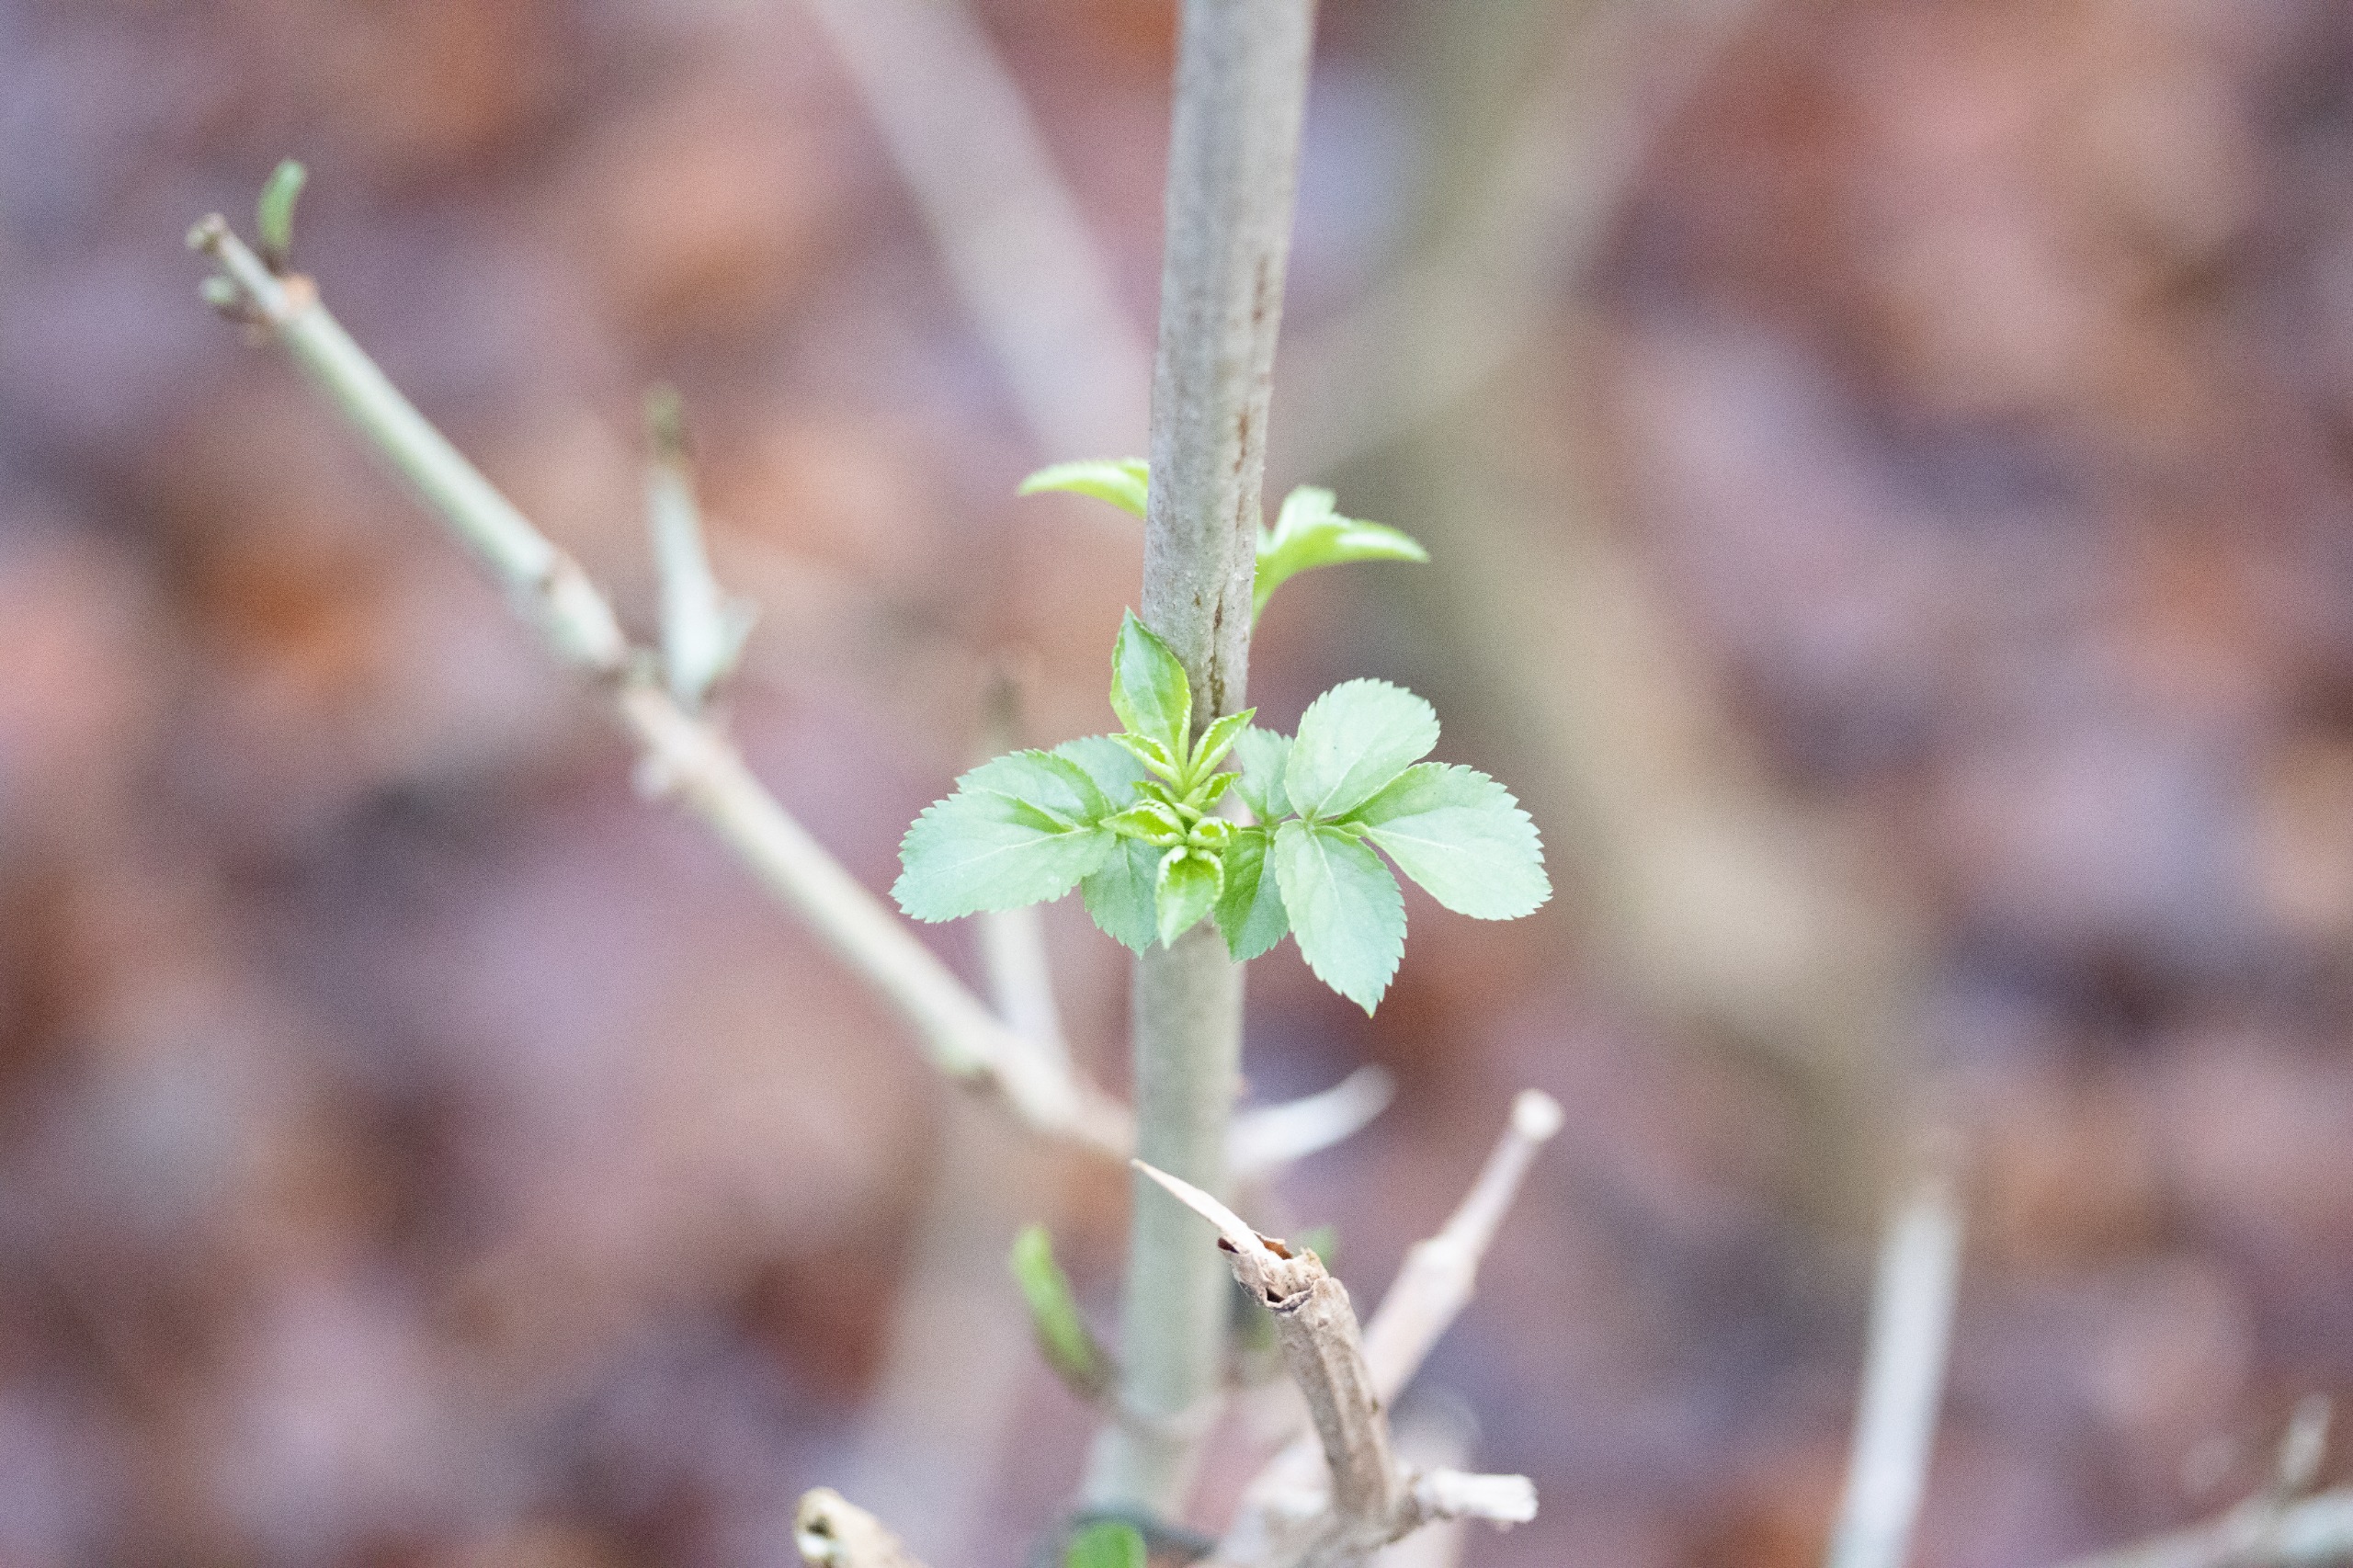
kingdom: Plantae
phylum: Tracheophyta
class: Magnoliopsida
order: Dipsacales
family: Viburnaceae
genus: Sambucus
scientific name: Sambucus nigra
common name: Almindelig hyld
